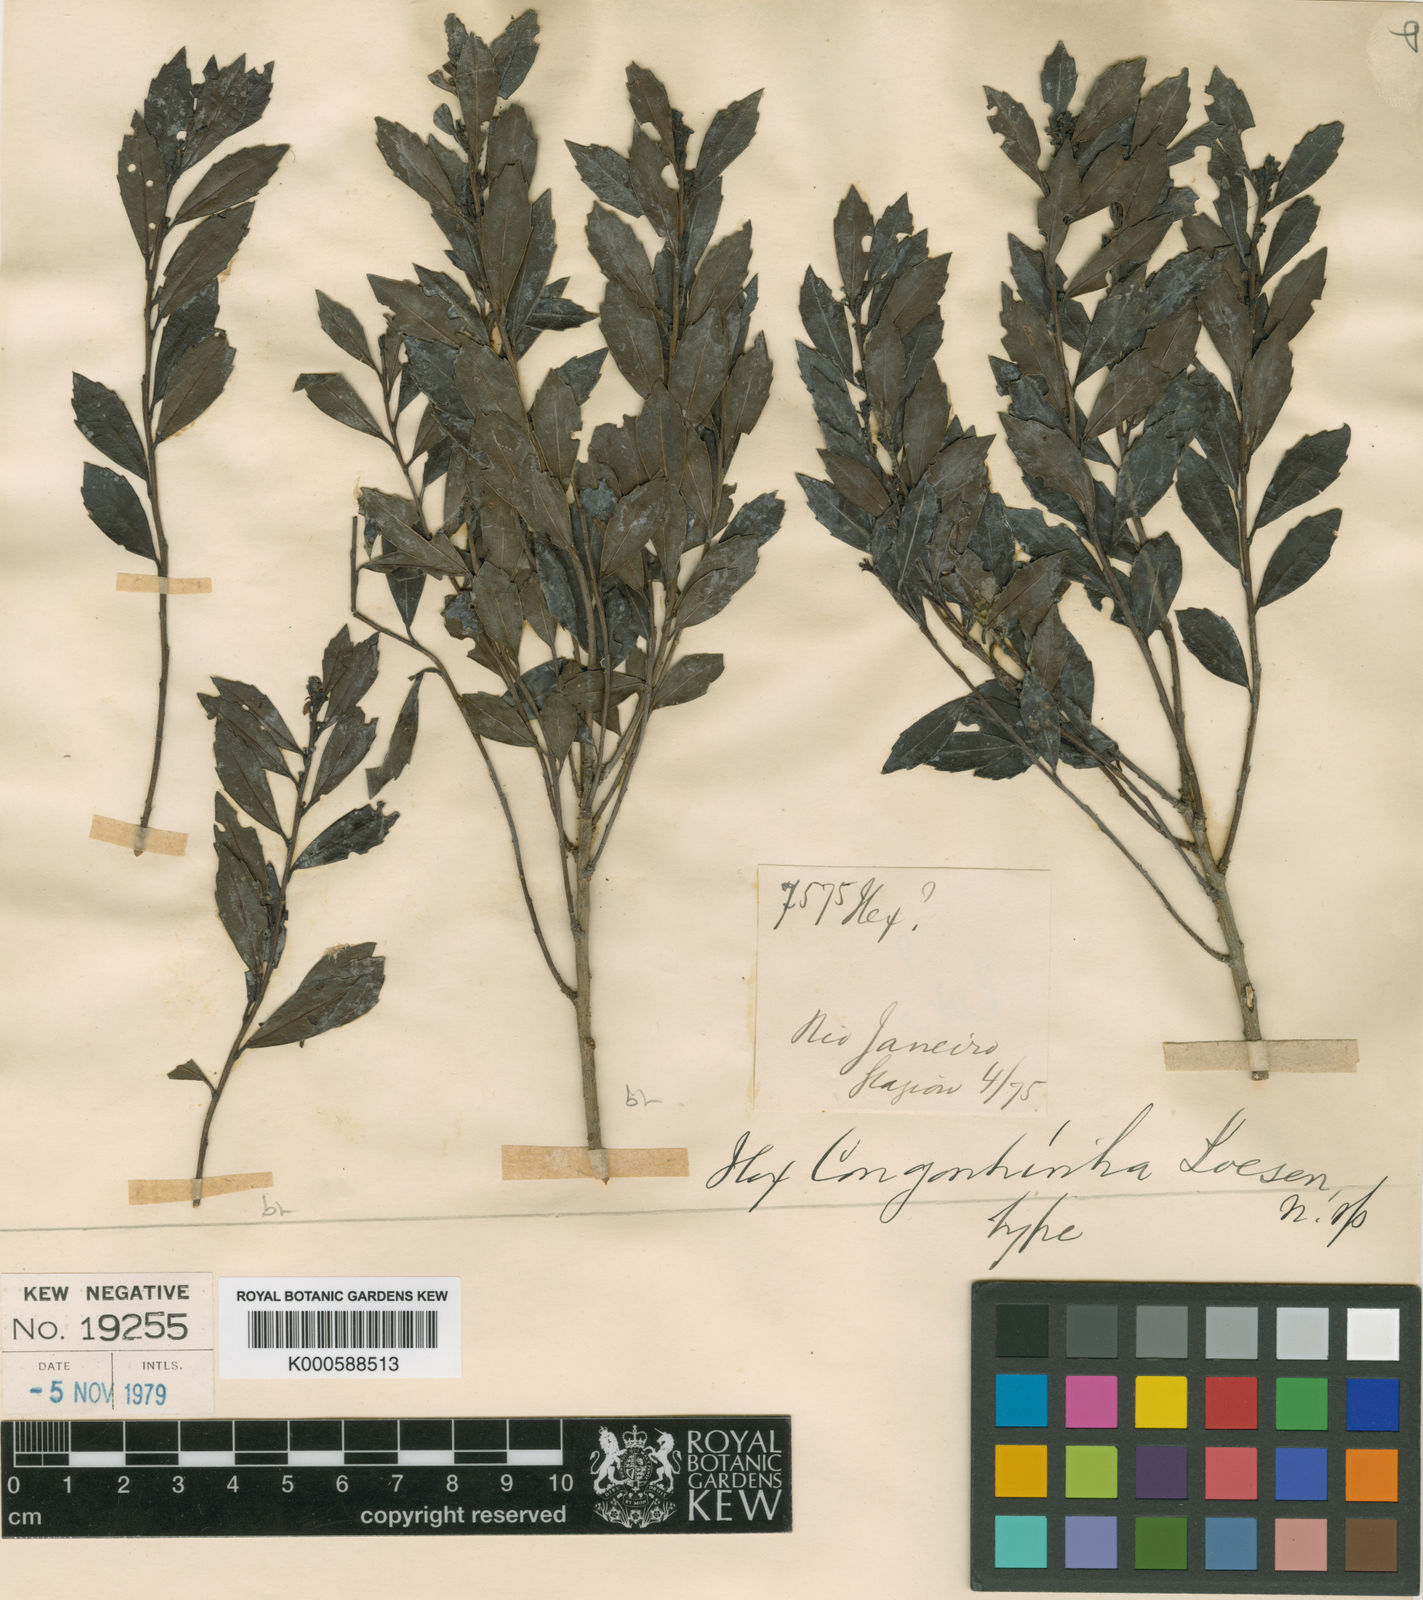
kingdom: Plantae
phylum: Tracheophyta
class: Magnoliopsida
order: Aquifoliales
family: Aquifoliaceae
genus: Ilex
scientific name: Ilex
